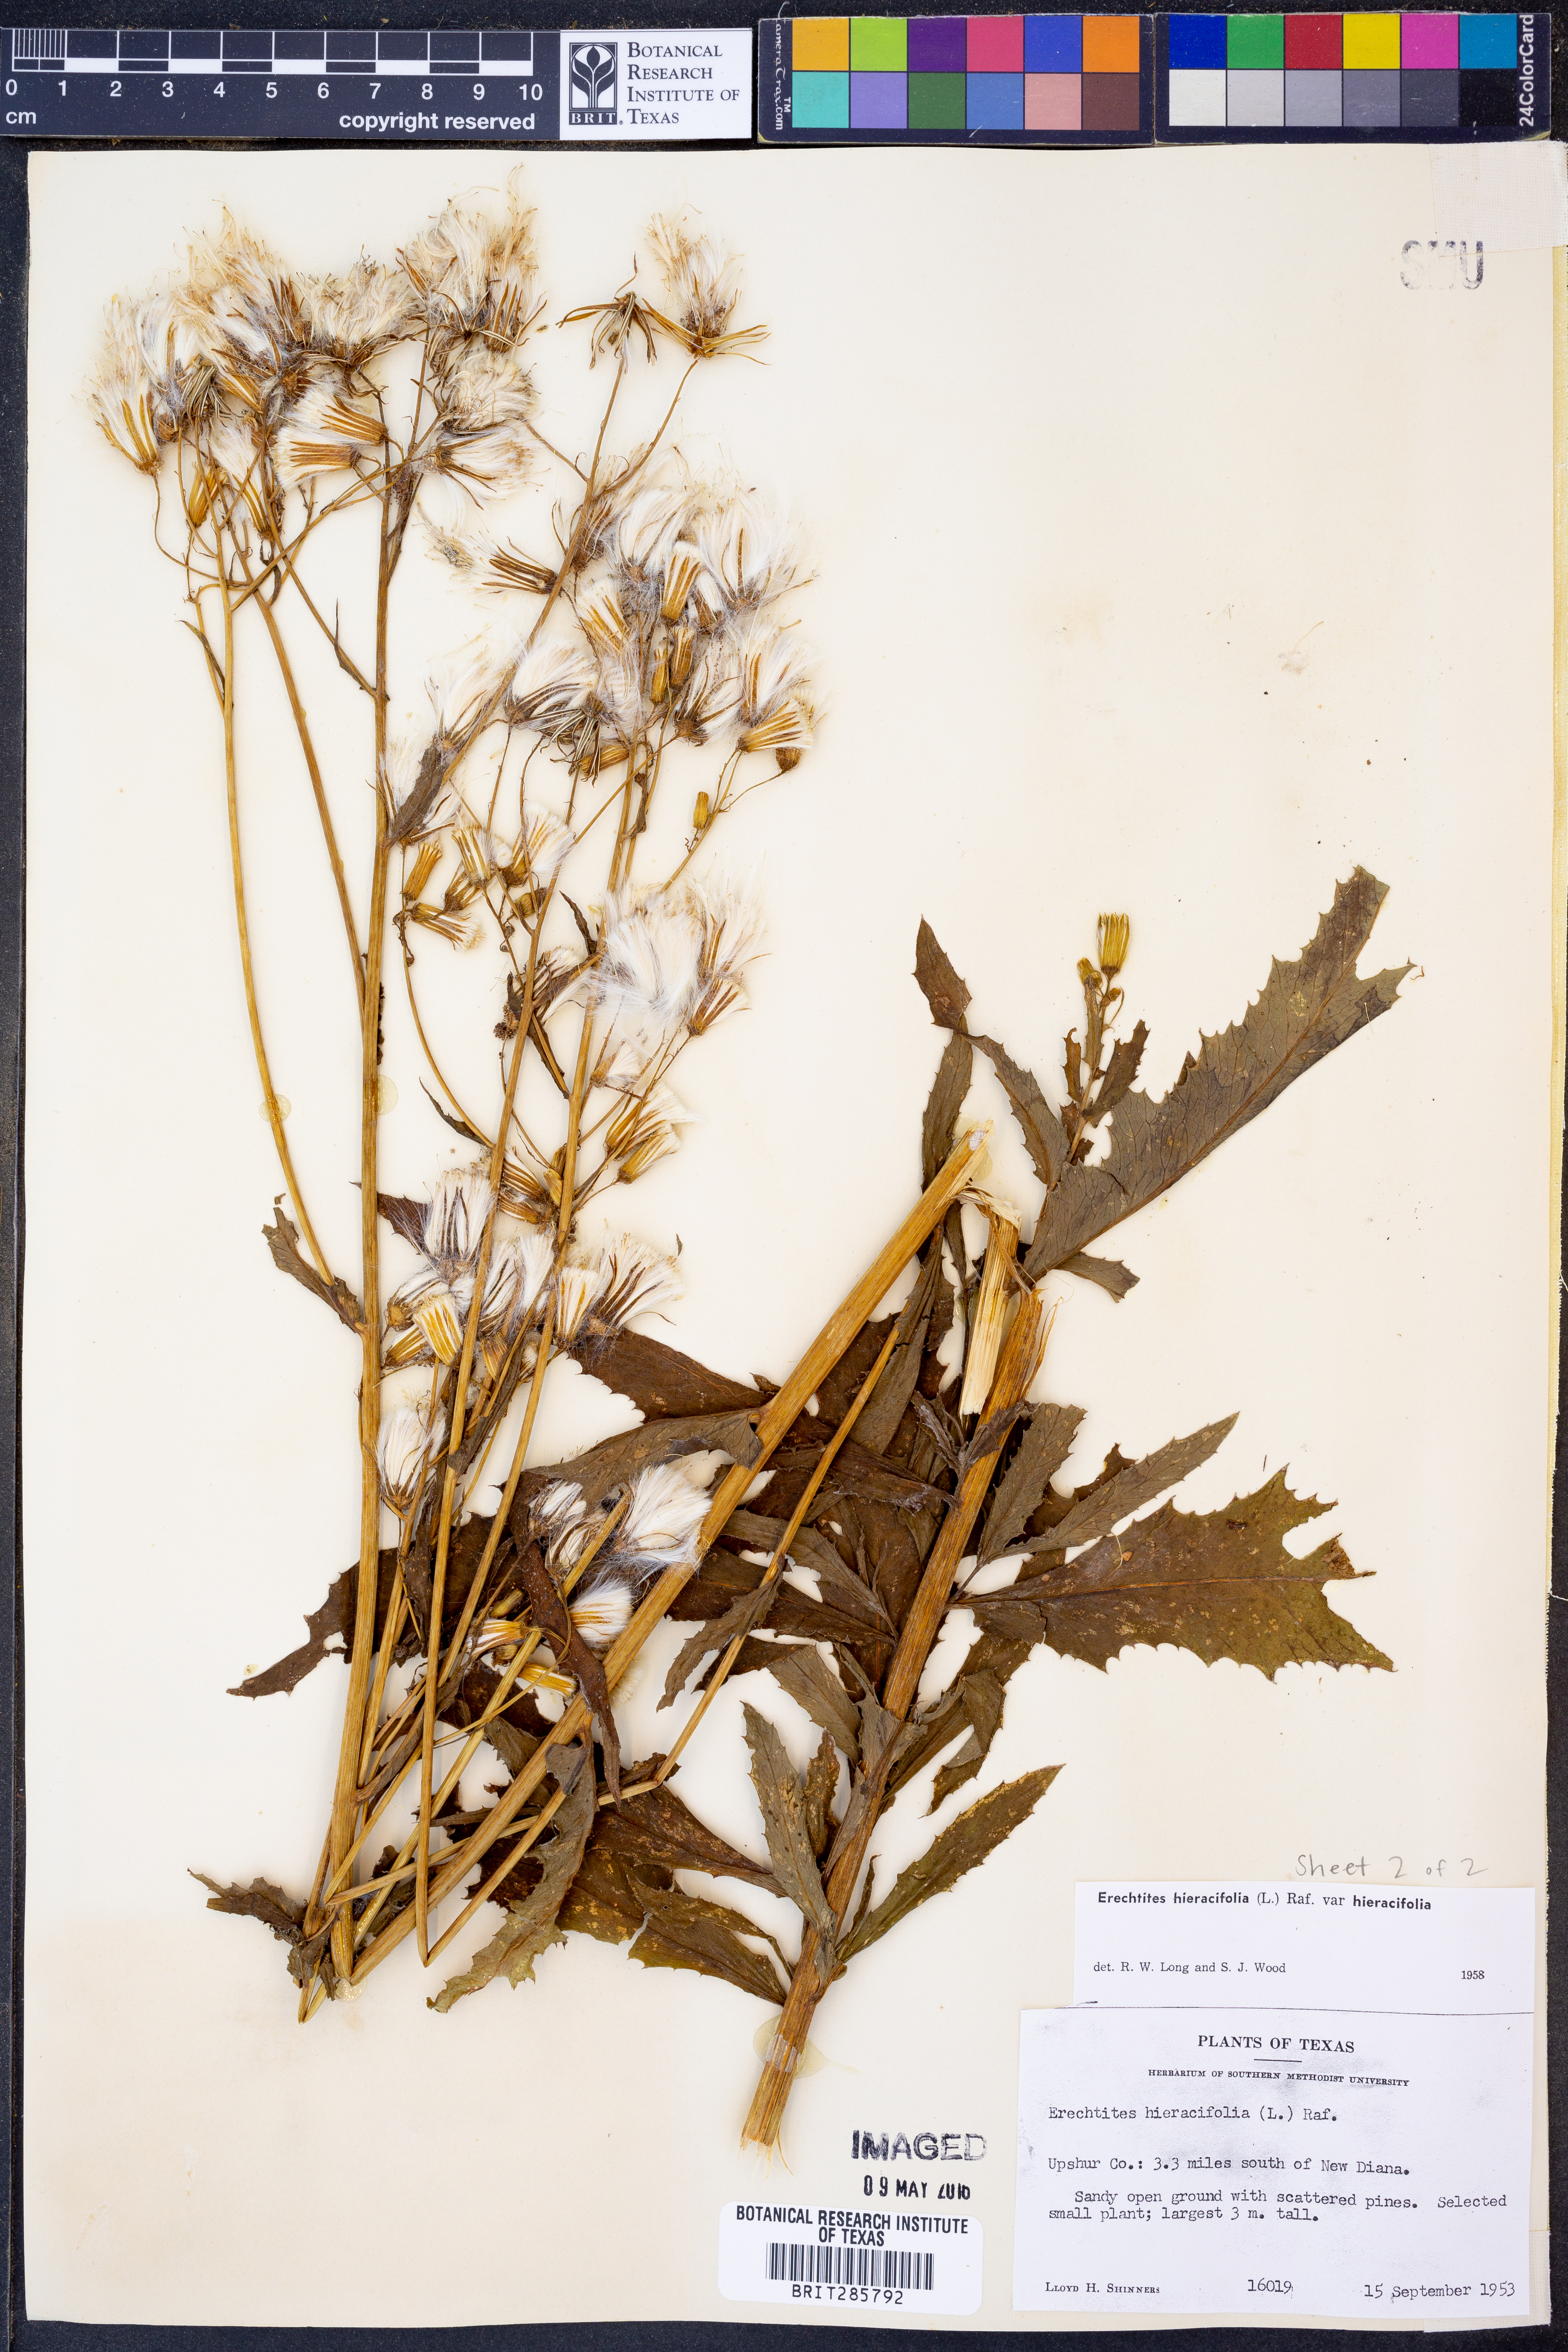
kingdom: Plantae
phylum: Tracheophyta
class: Magnoliopsida
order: Asterales
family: Asteraceae
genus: Erechtites
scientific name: Erechtites hieraciifolius
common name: American burnweed
